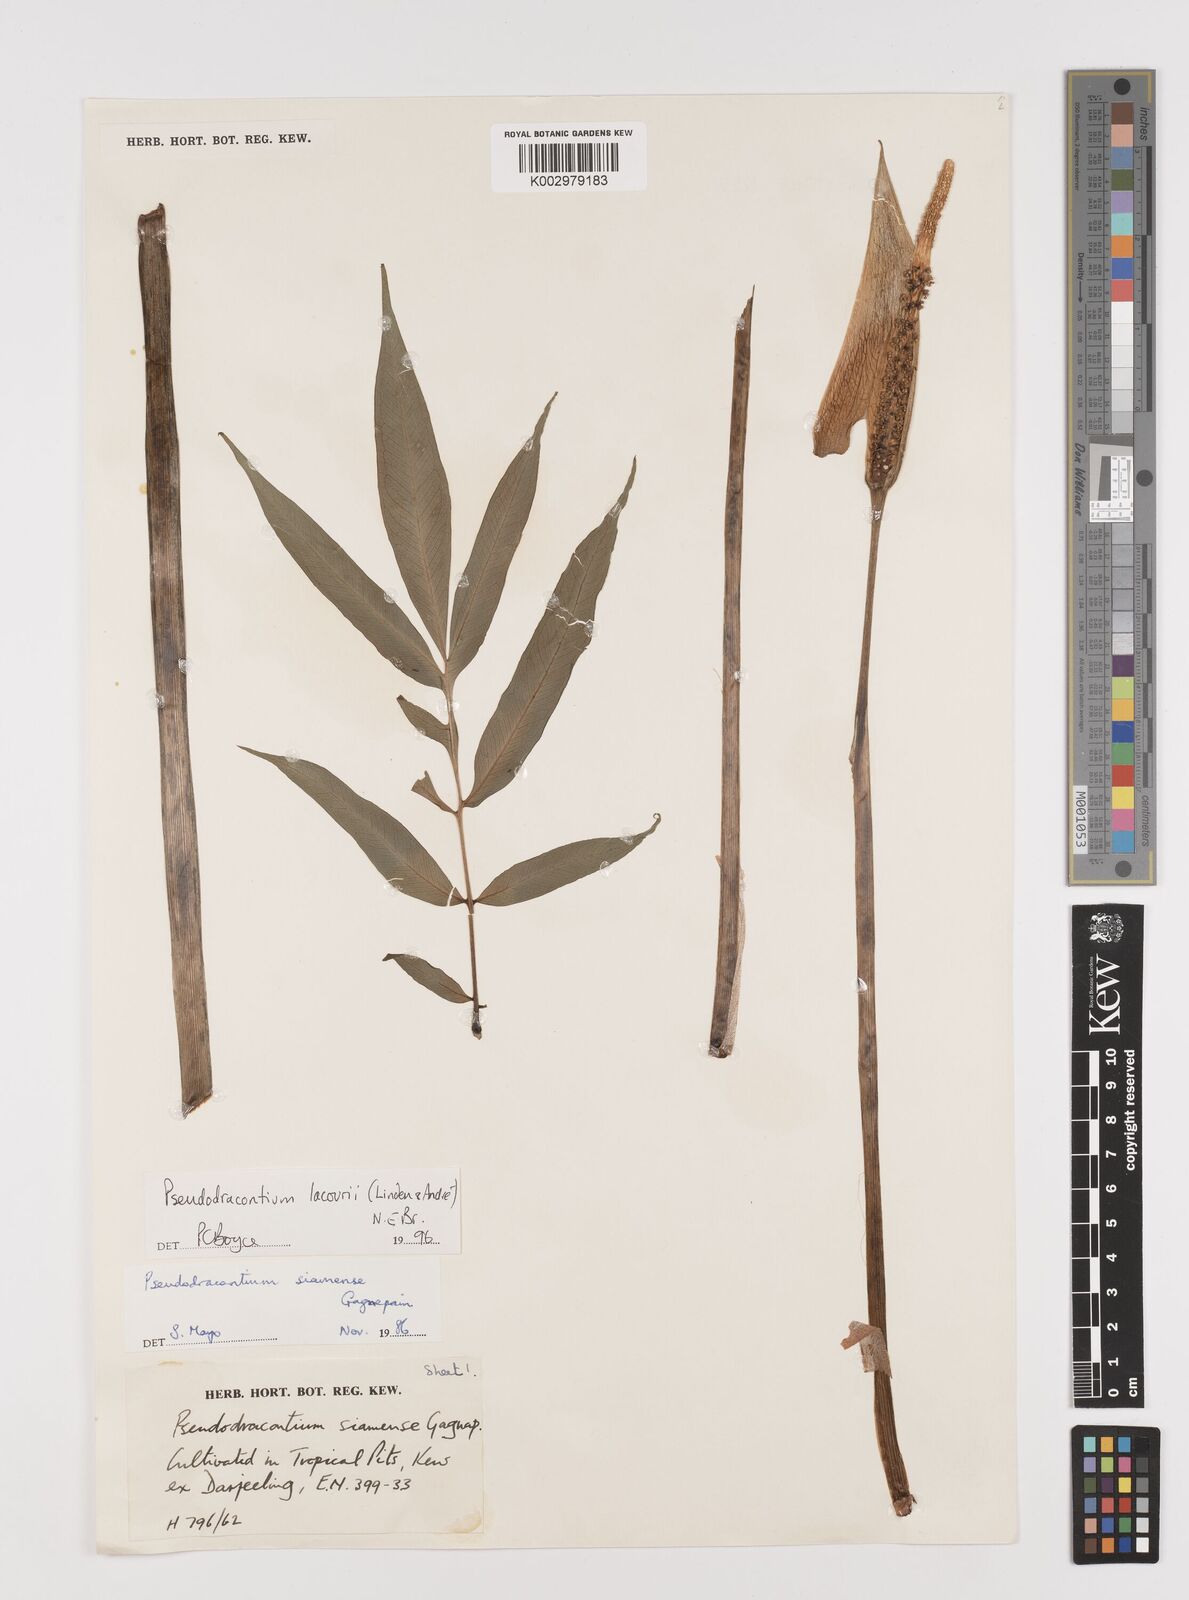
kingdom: Plantae
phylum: Tracheophyta
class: Liliopsida
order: Alismatales
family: Araceae
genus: Amorphophallus
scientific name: Amorphophallus lacourii
